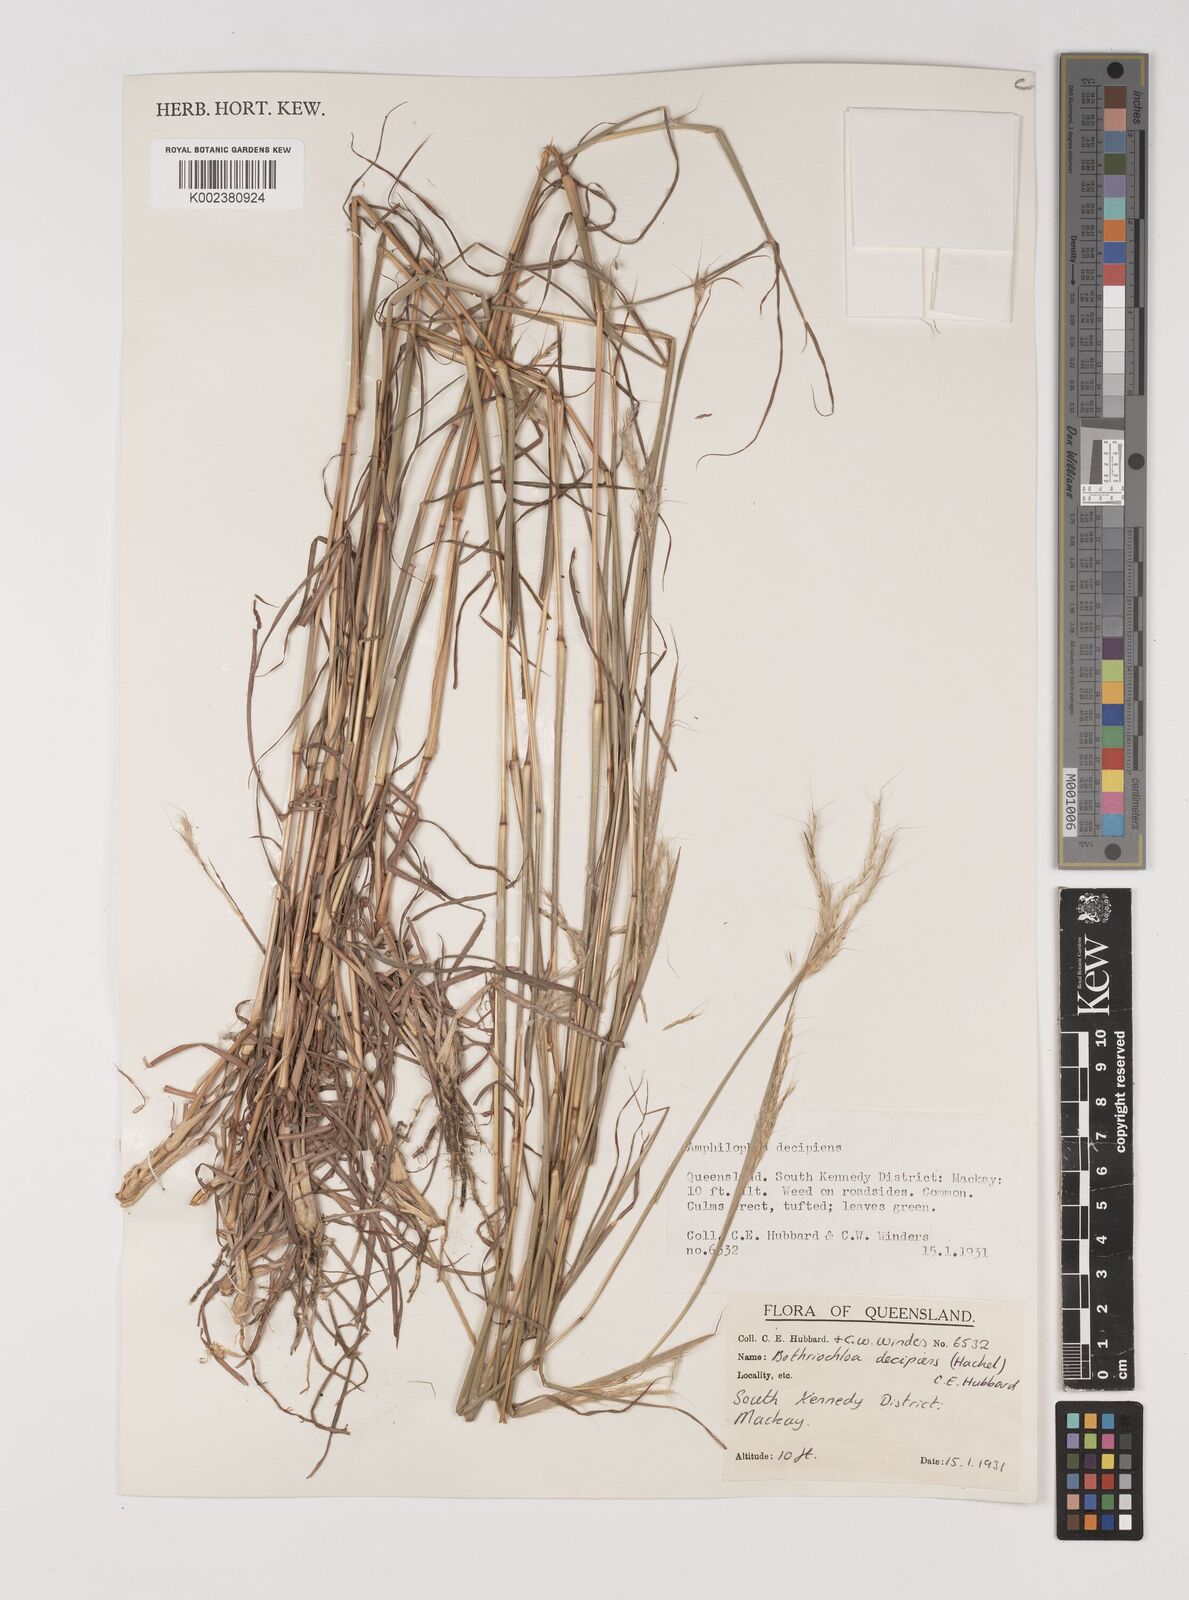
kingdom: Plantae
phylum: Tracheophyta
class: Liliopsida
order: Poales
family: Poaceae
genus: Bothriochloa
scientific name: Bothriochloa decipiens
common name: Pitted-bluegrass
